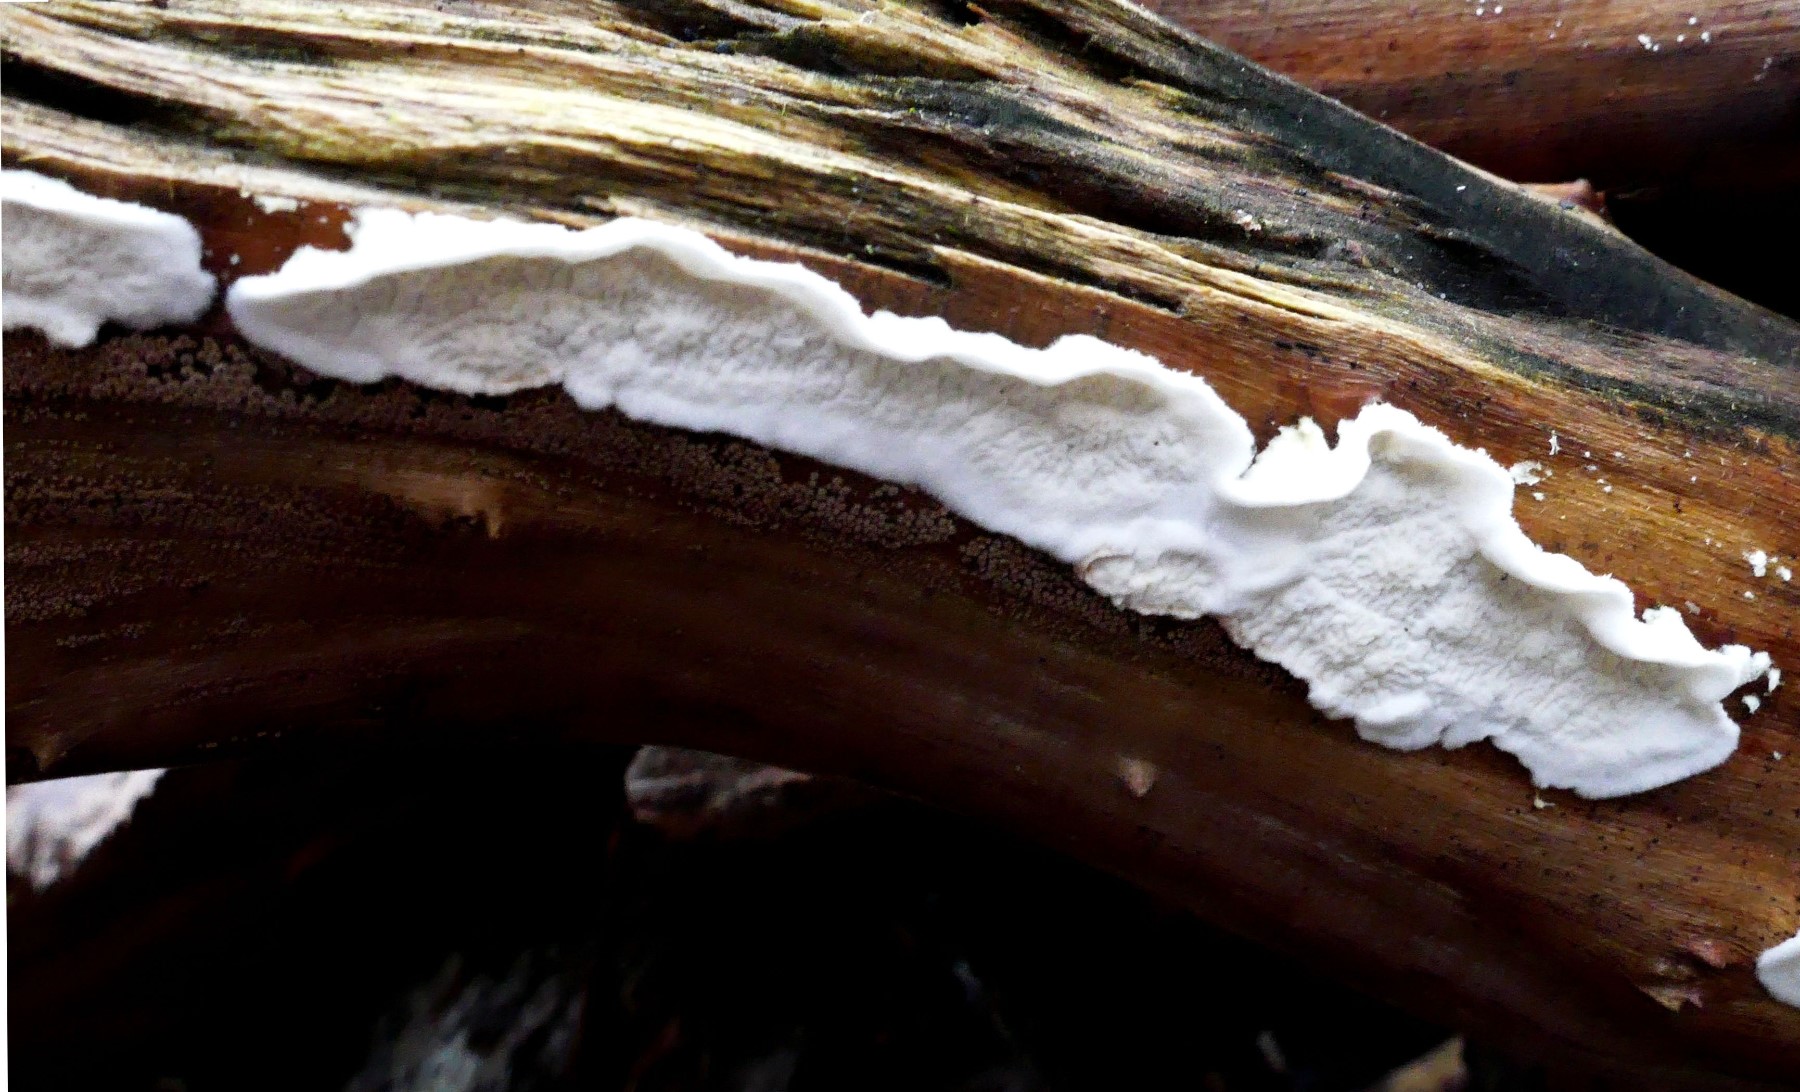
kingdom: Fungi
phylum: Basidiomycota
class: Agaricomycetes
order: Polyporales
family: Irpicaceae
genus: Byssomerulius
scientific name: Byssomerulius corium
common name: læder-åresvamp
